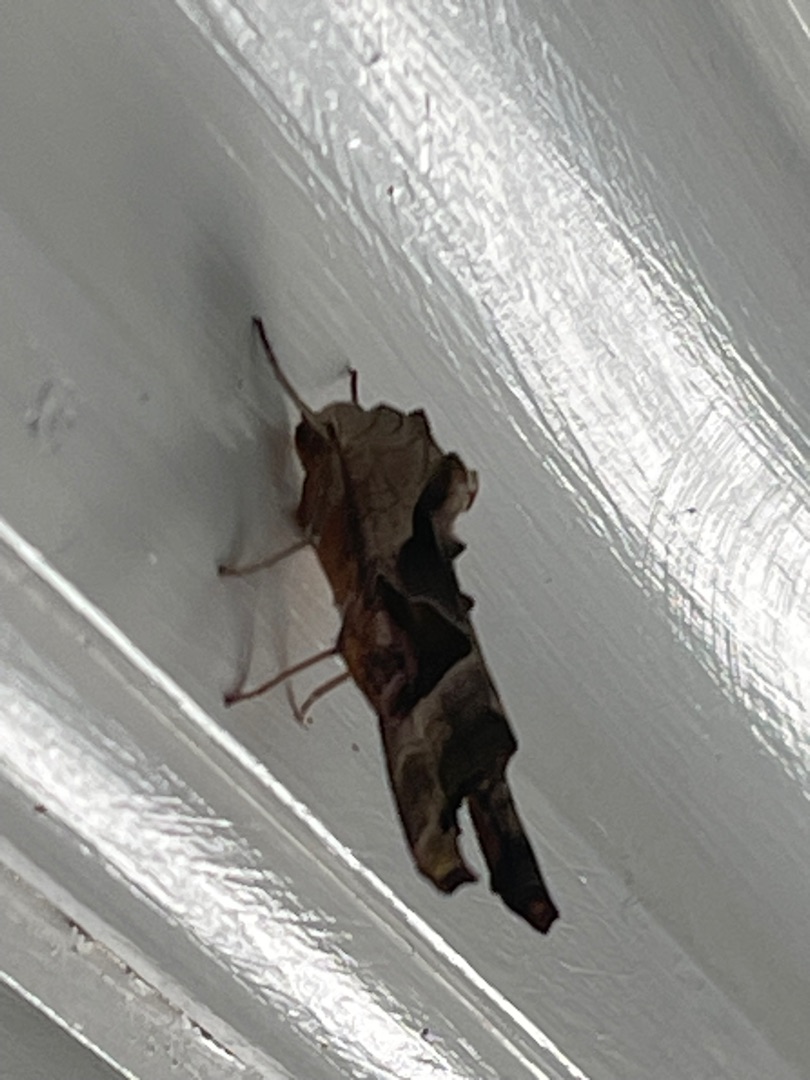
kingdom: Animalia
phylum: Arthropoda
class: Insecta
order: Lepidoptera
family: Noctuidae
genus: Phlogophora
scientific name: Phlogophora meticulosa
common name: Agatugle
